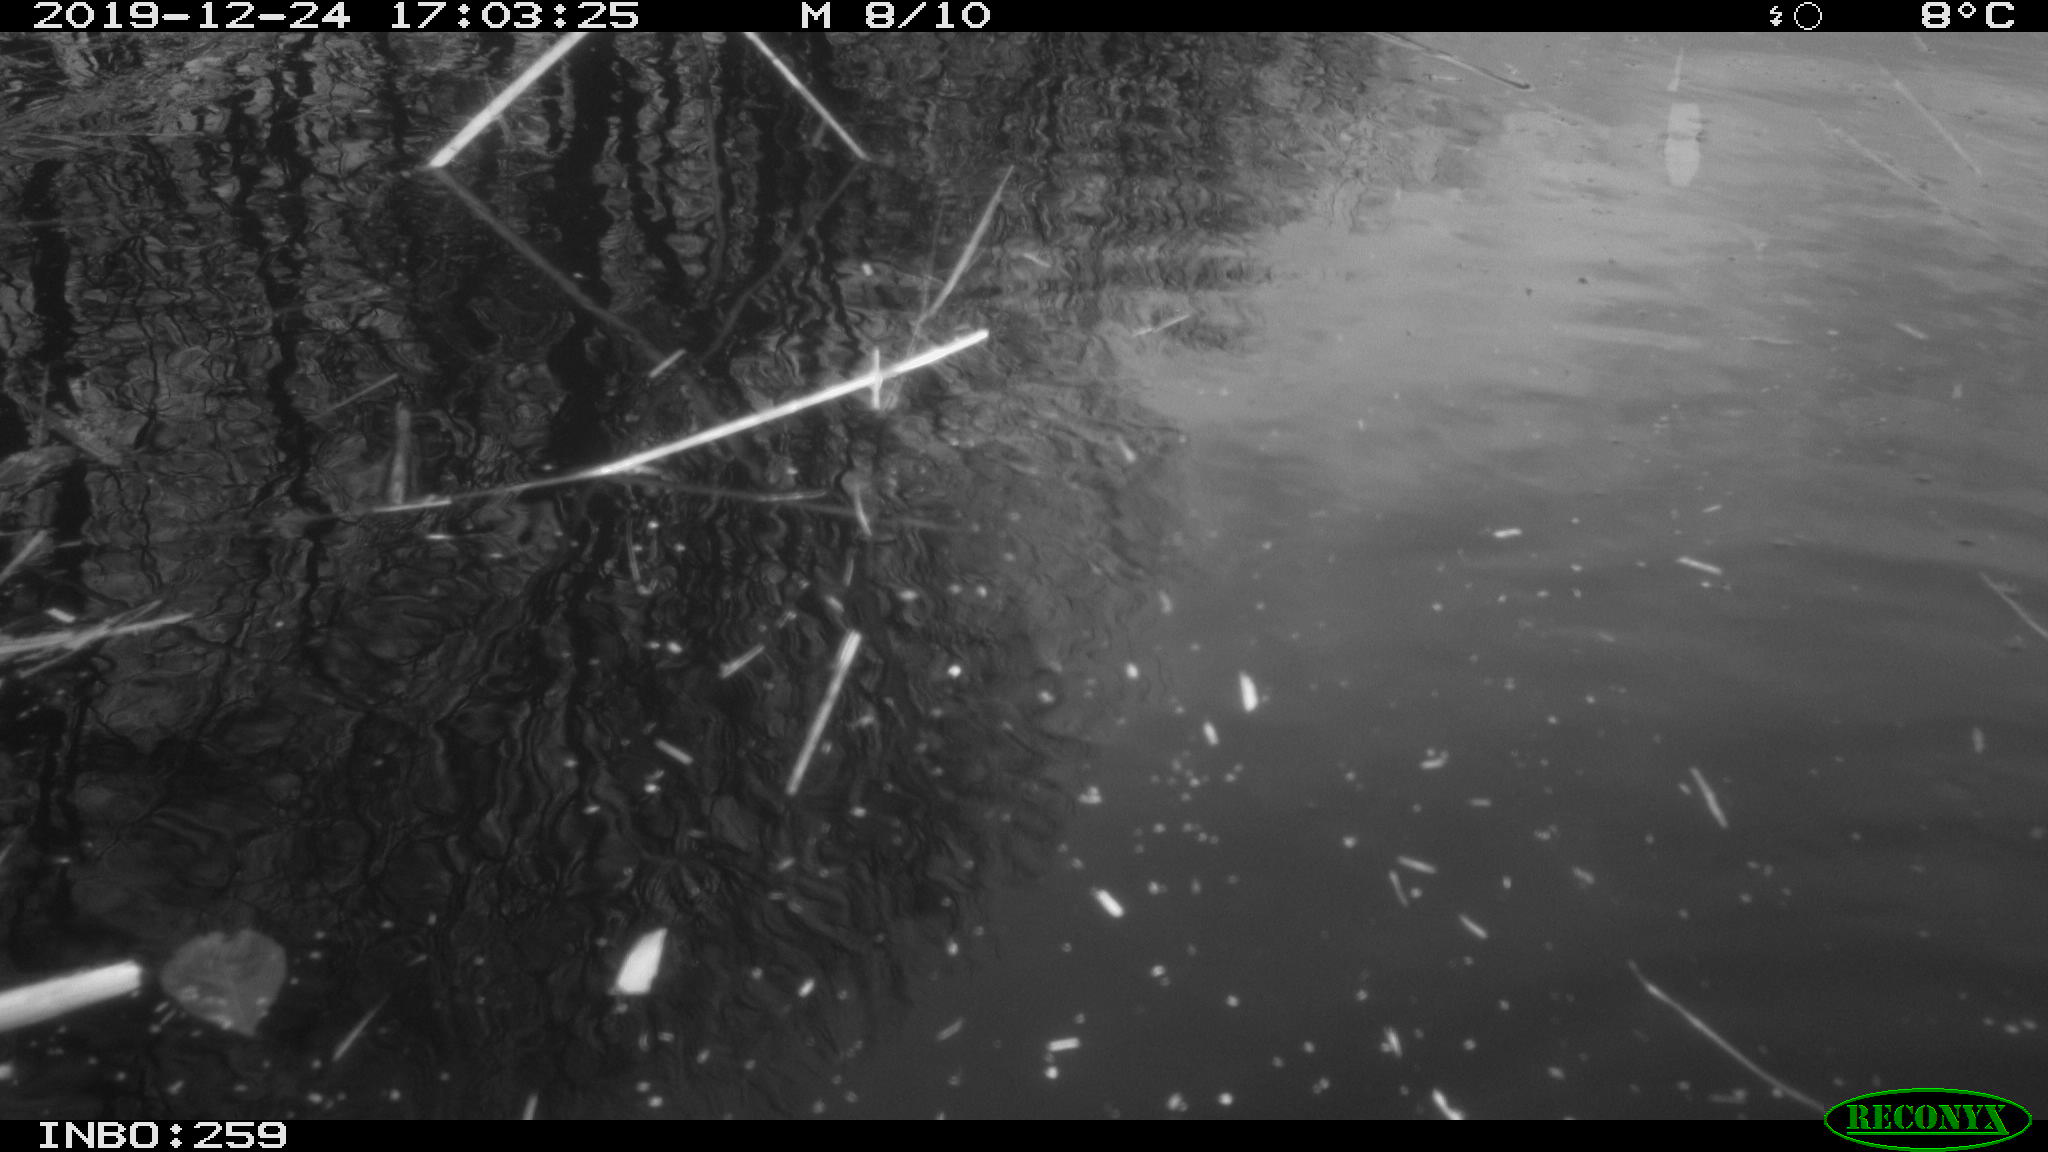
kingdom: Animalia
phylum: Chordata
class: Aves
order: Gruiformes
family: Rallidae
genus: Gallinula
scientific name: Gallinula chloropus
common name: Common moorhen
